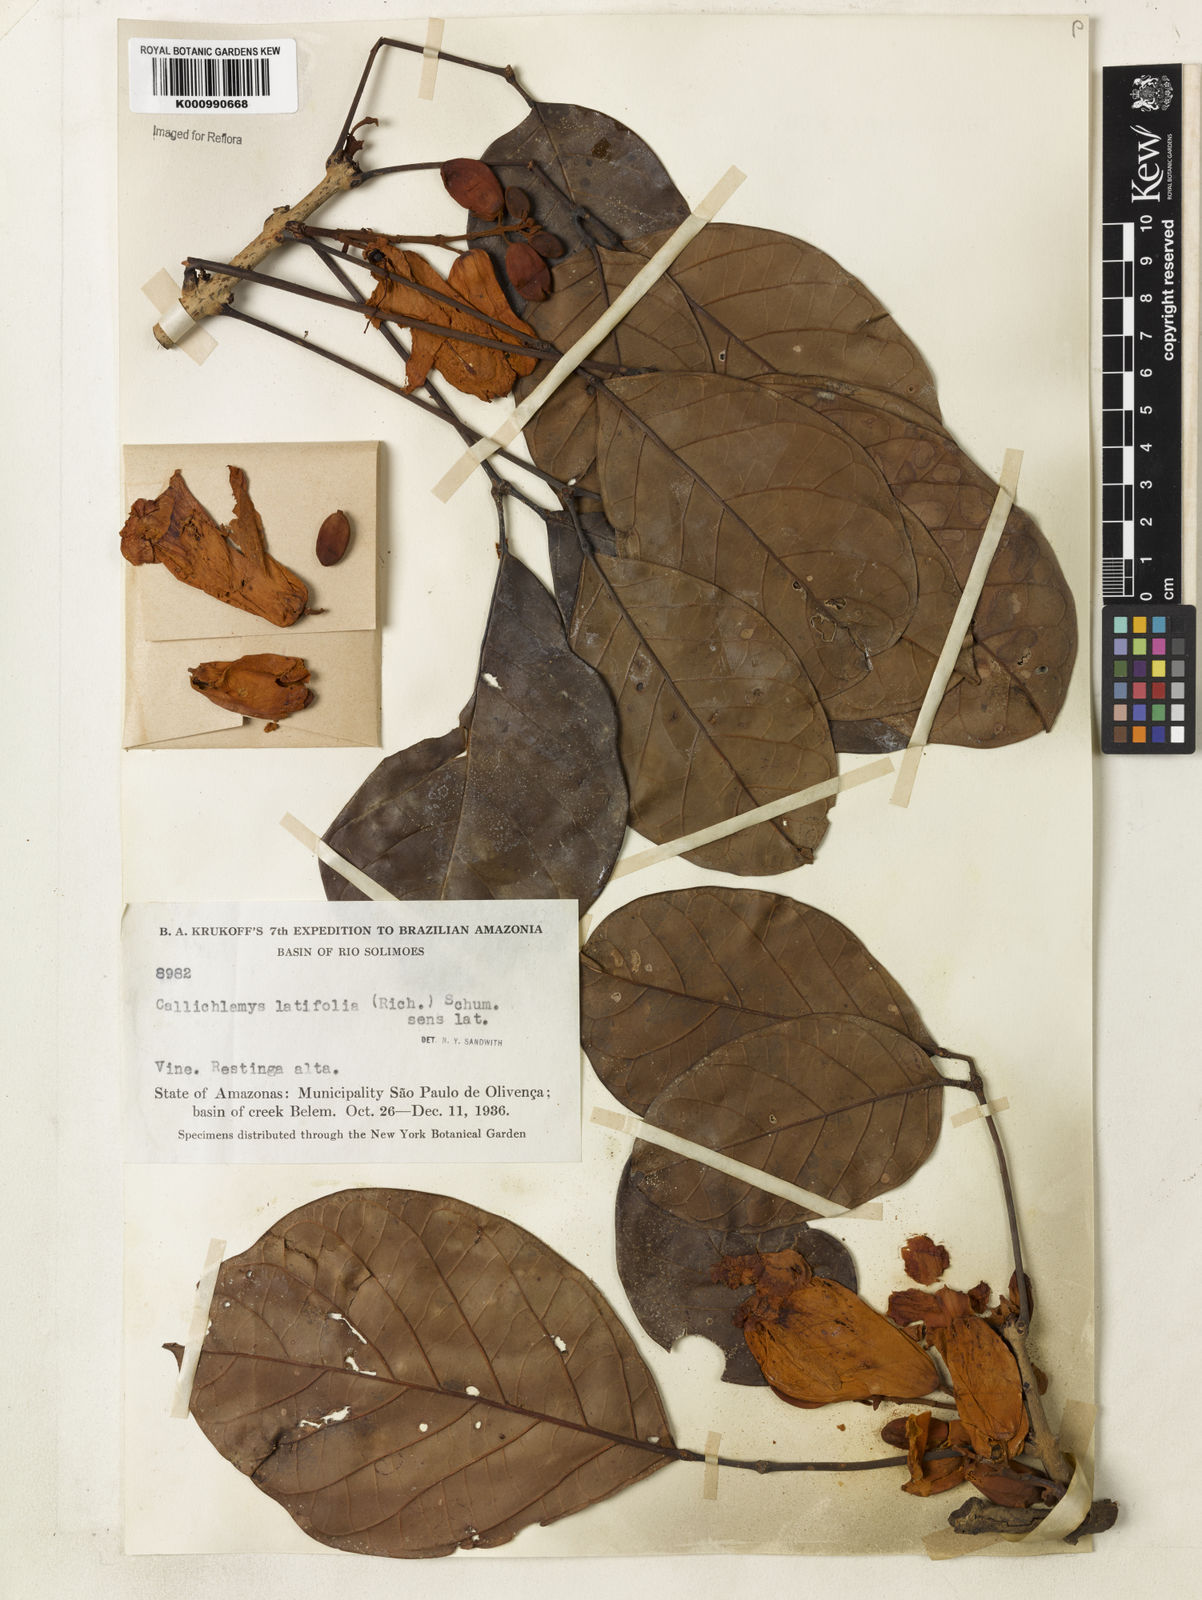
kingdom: Plantae
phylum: Tracheophyta
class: Magnoliopsida
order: Lamiales
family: Bignoniaceae
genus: Callichlamys
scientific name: Callichlamys latifolia
